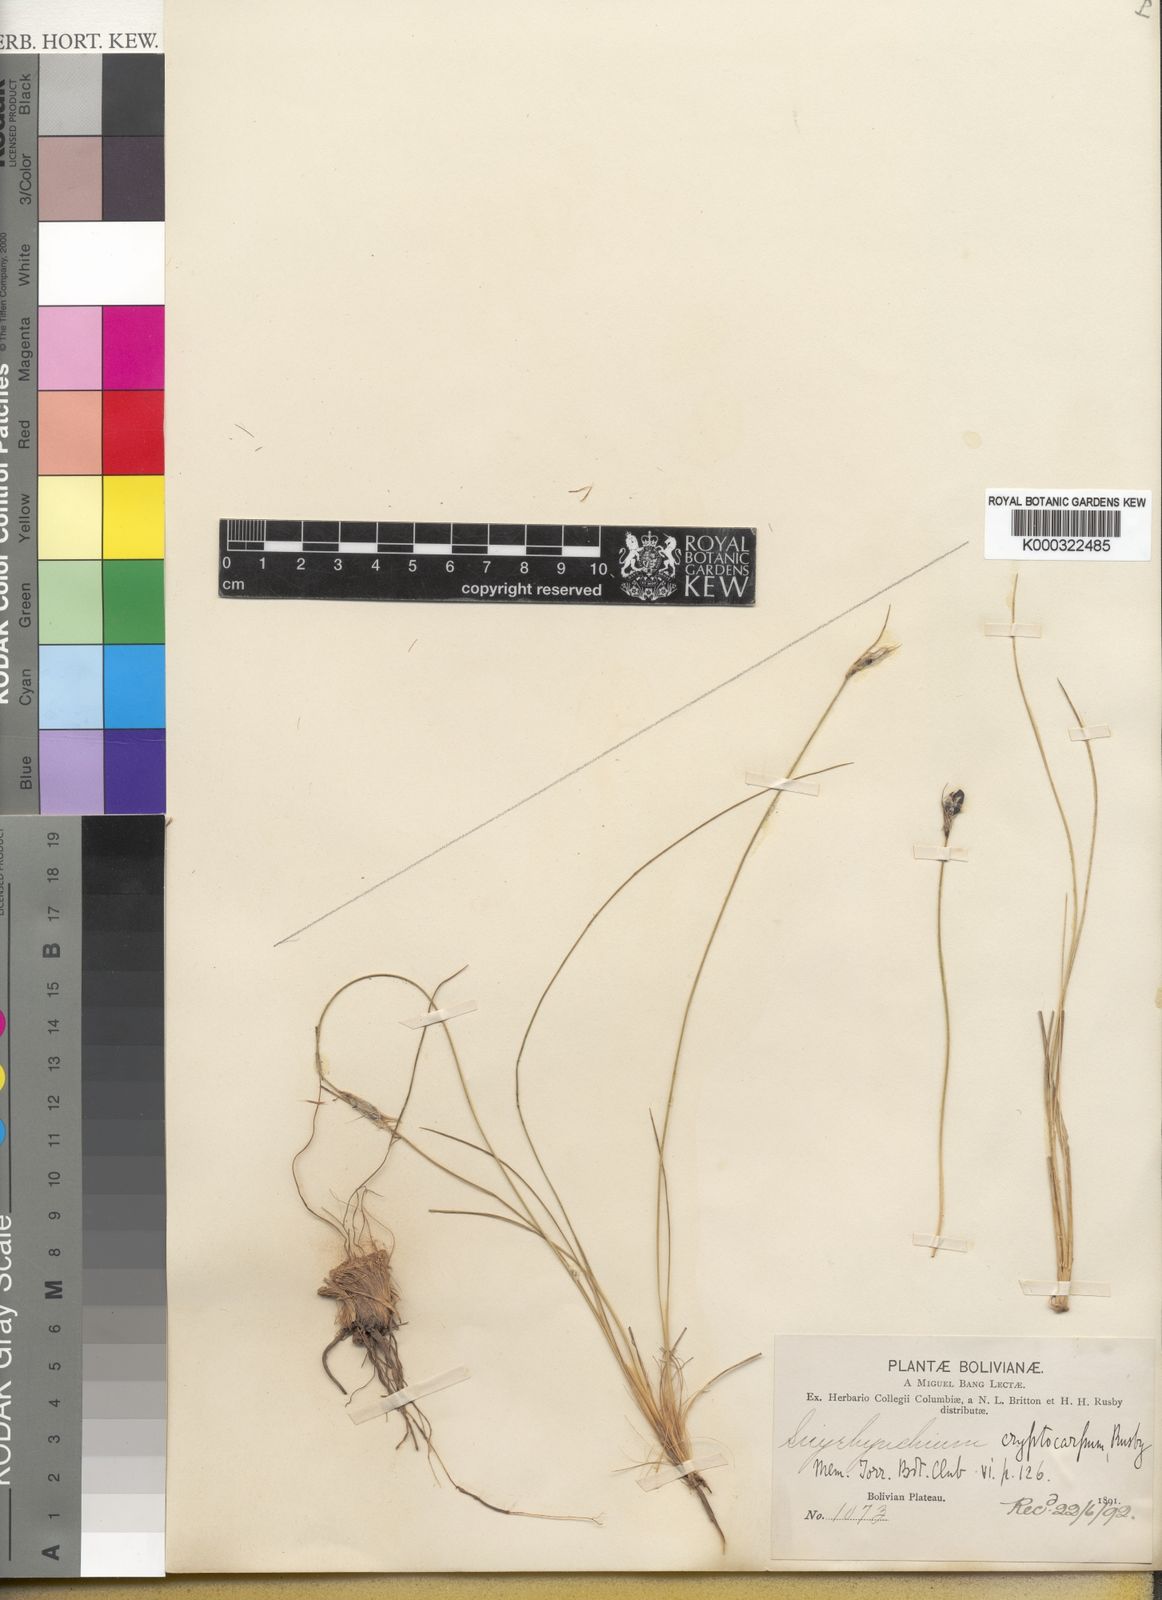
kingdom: Plantae
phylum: Tracheophyta
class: Liliopsida
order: Asparagales
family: Iridaceae
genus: Olsynium
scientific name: Olsynium trinerve
